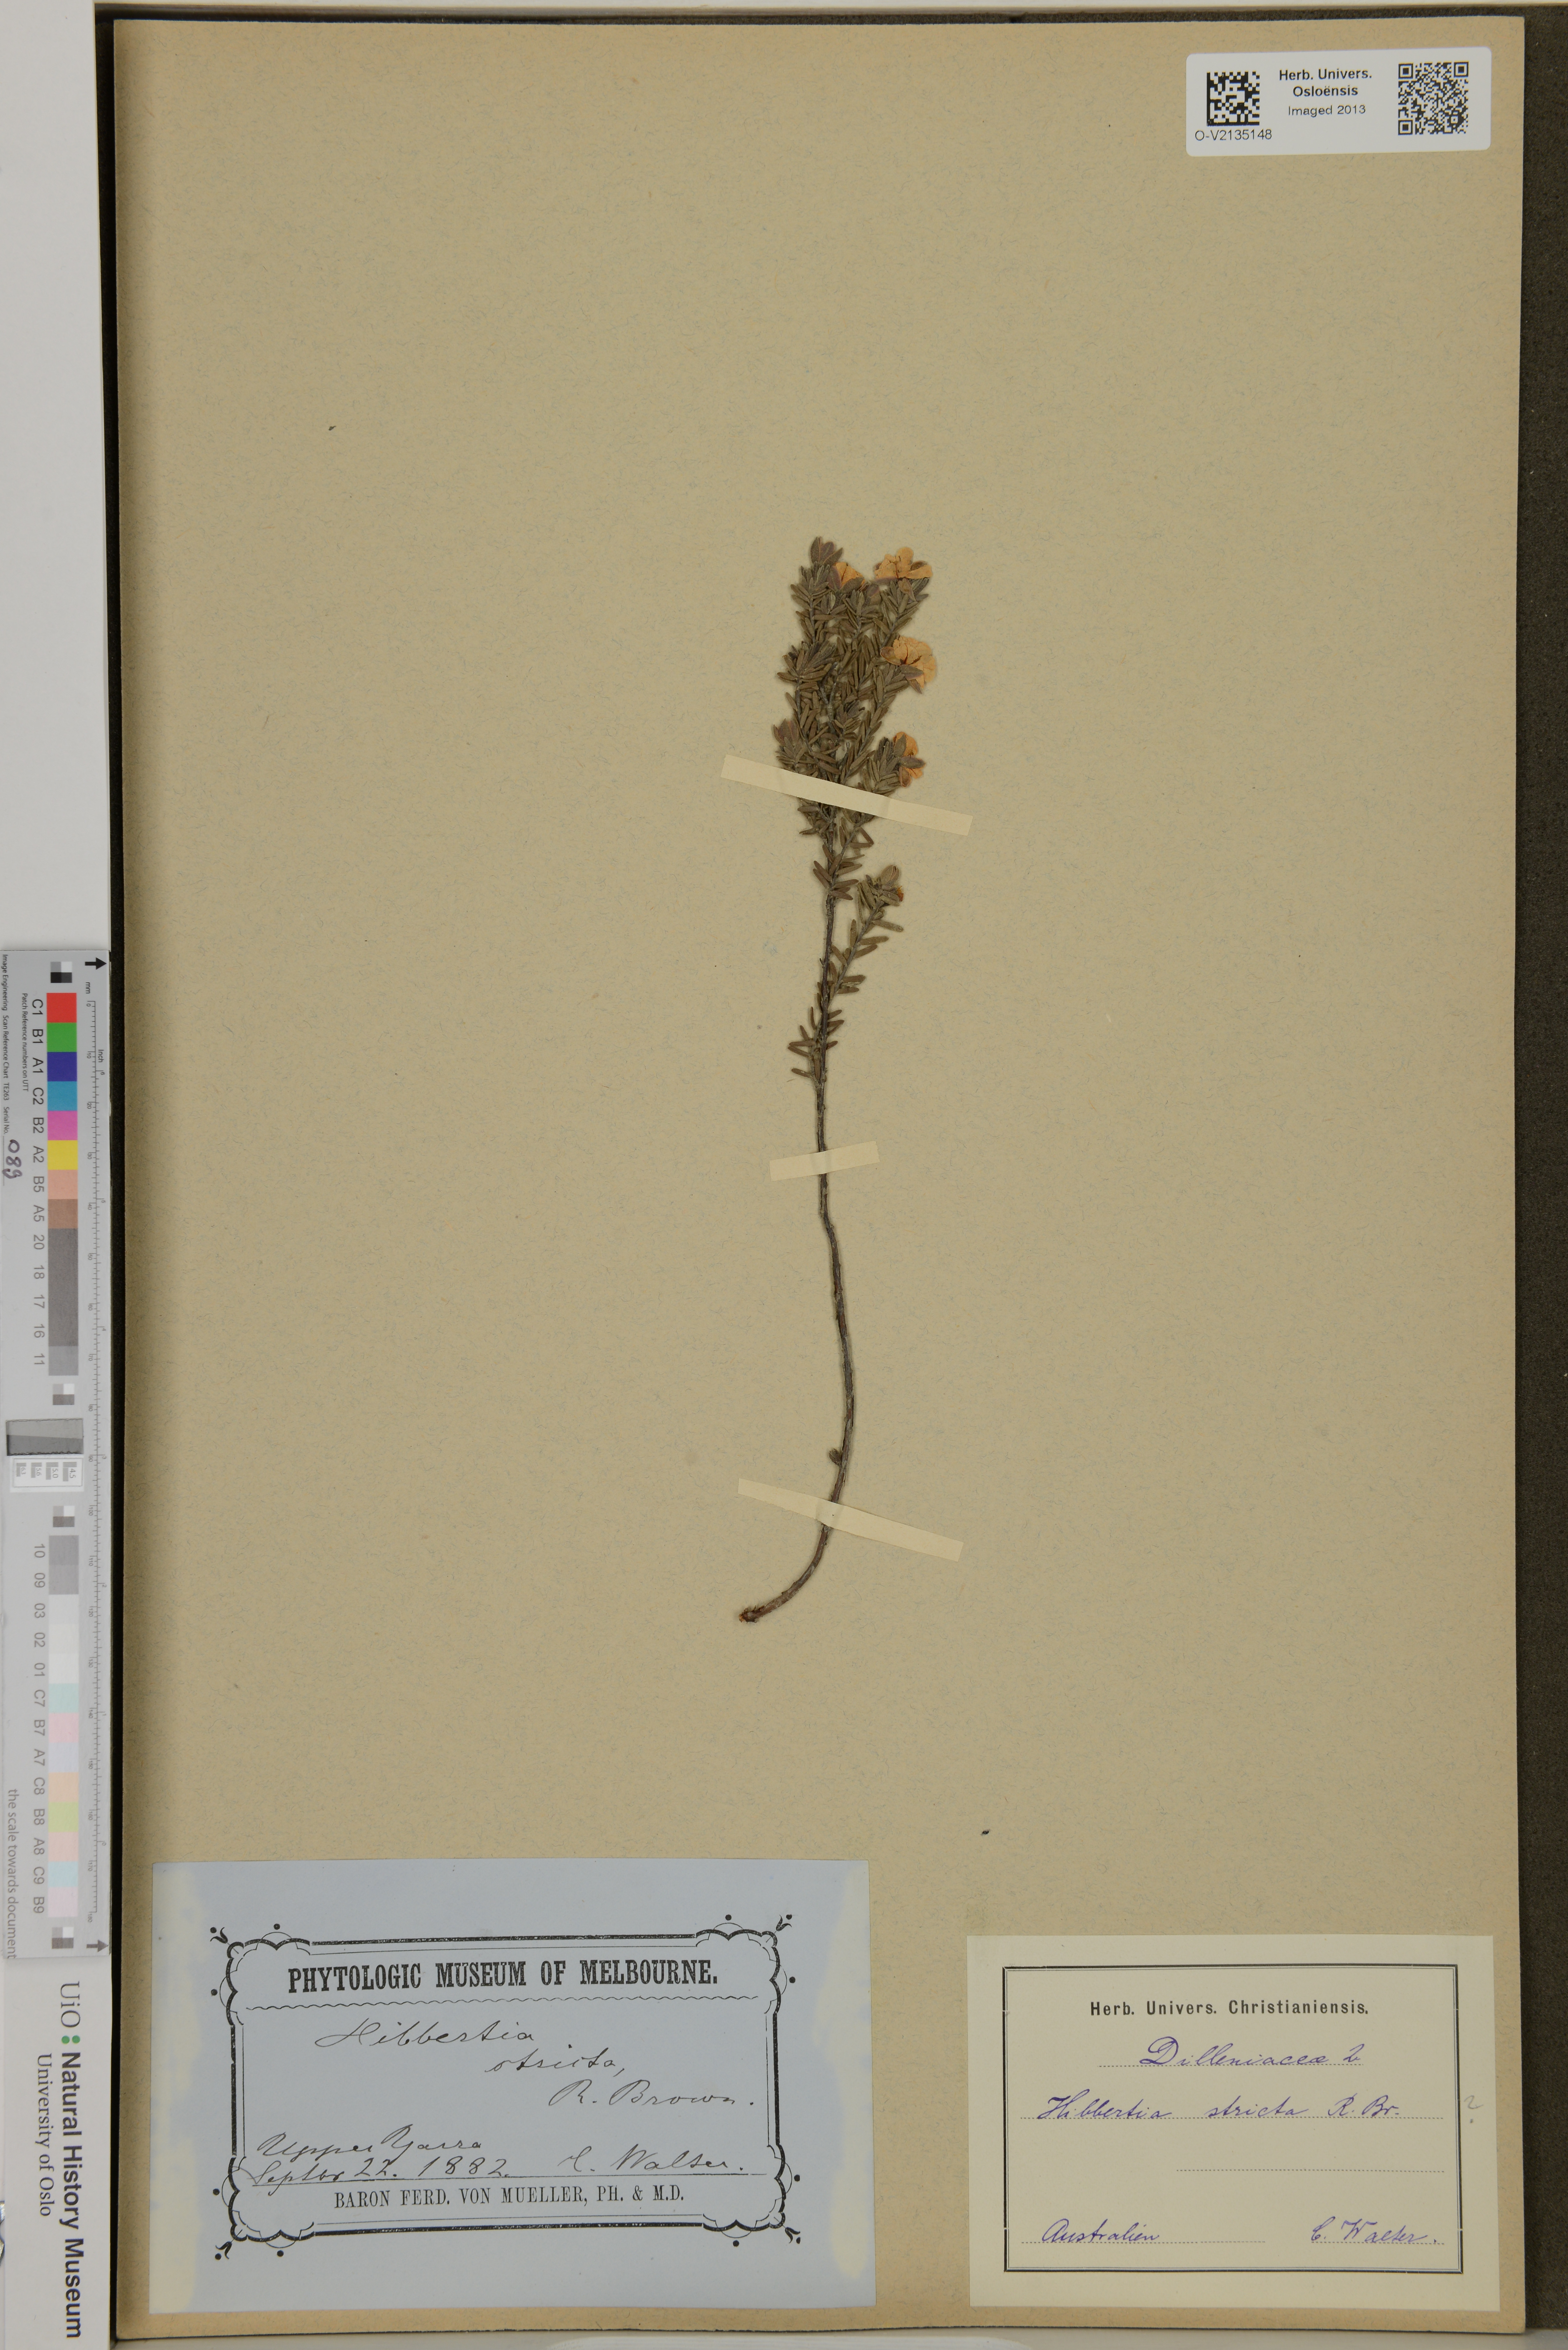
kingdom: Plantae
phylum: Tracheophyta
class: Magnoliopsida
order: Dilleniales
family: Dilleniaceae
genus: Hibbertia
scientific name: Hibbertia stricta
